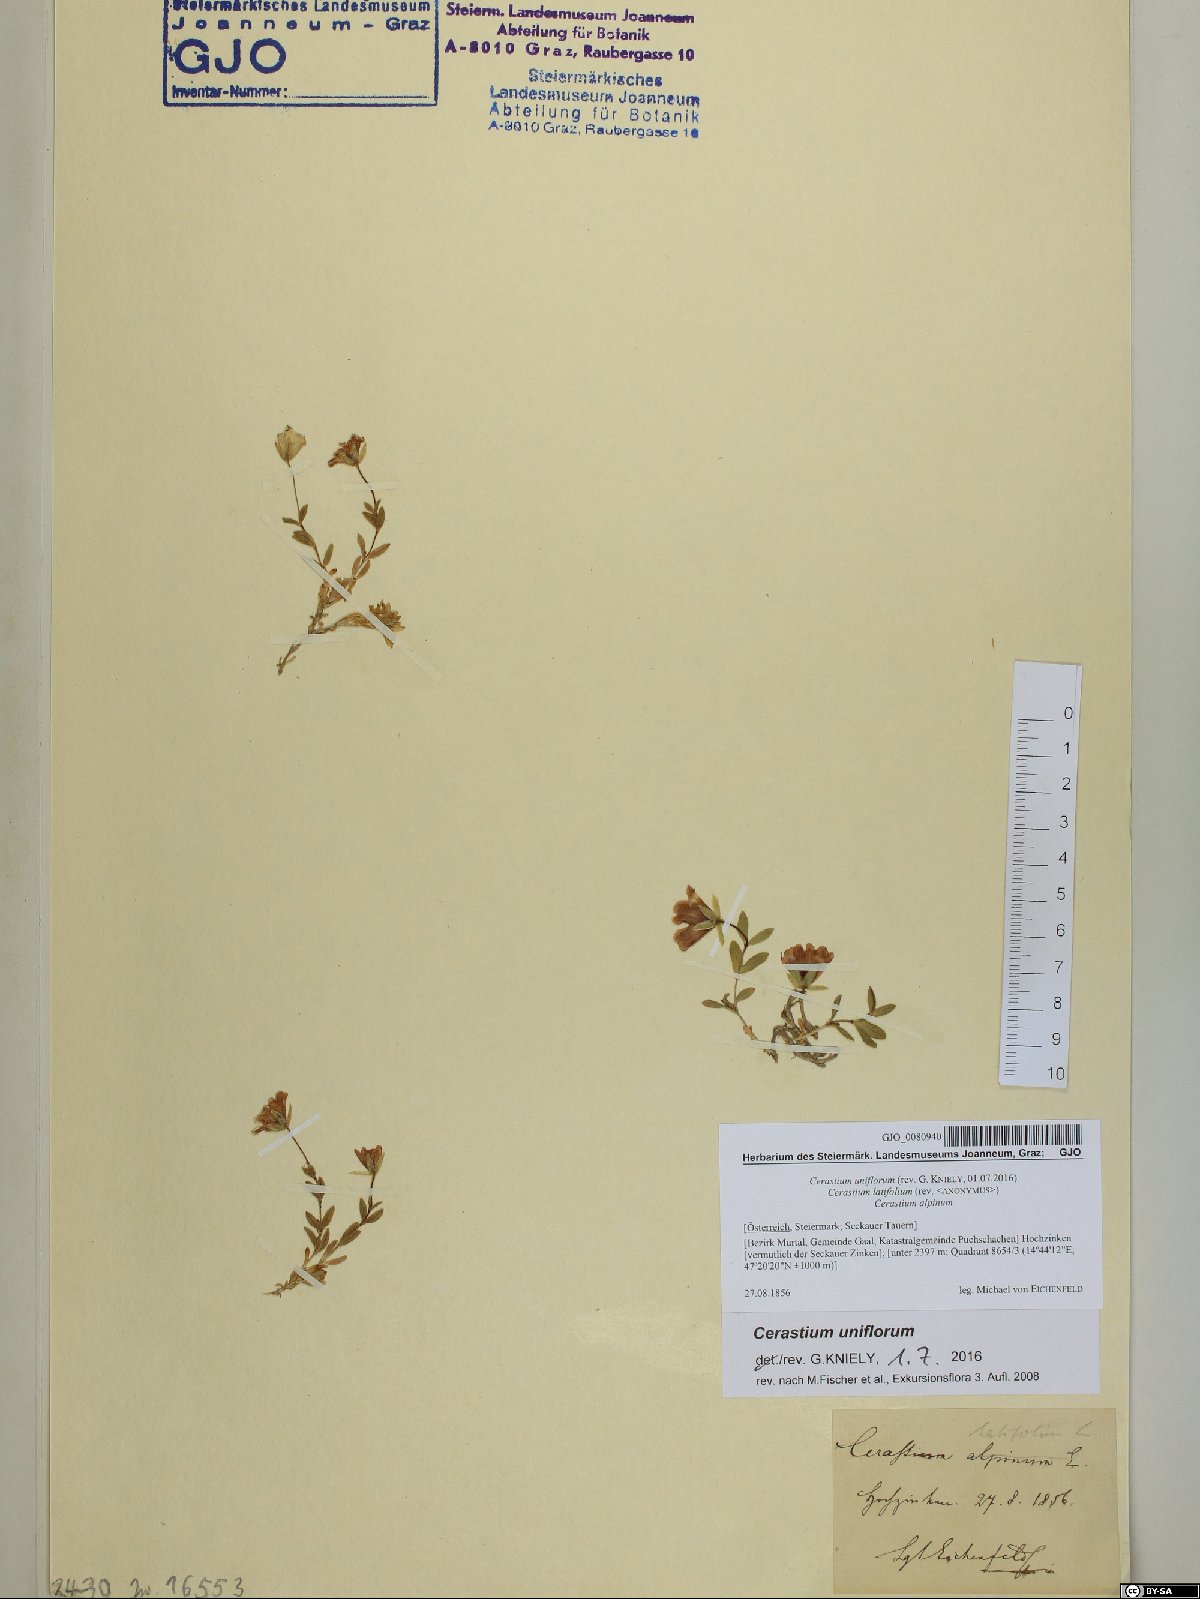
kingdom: Plantae
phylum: Tracheophyta
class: Magnoliopsida
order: Caryophyllales
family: Caryophyllaceae
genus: Cerastium
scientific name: Cerastium uniflorum
